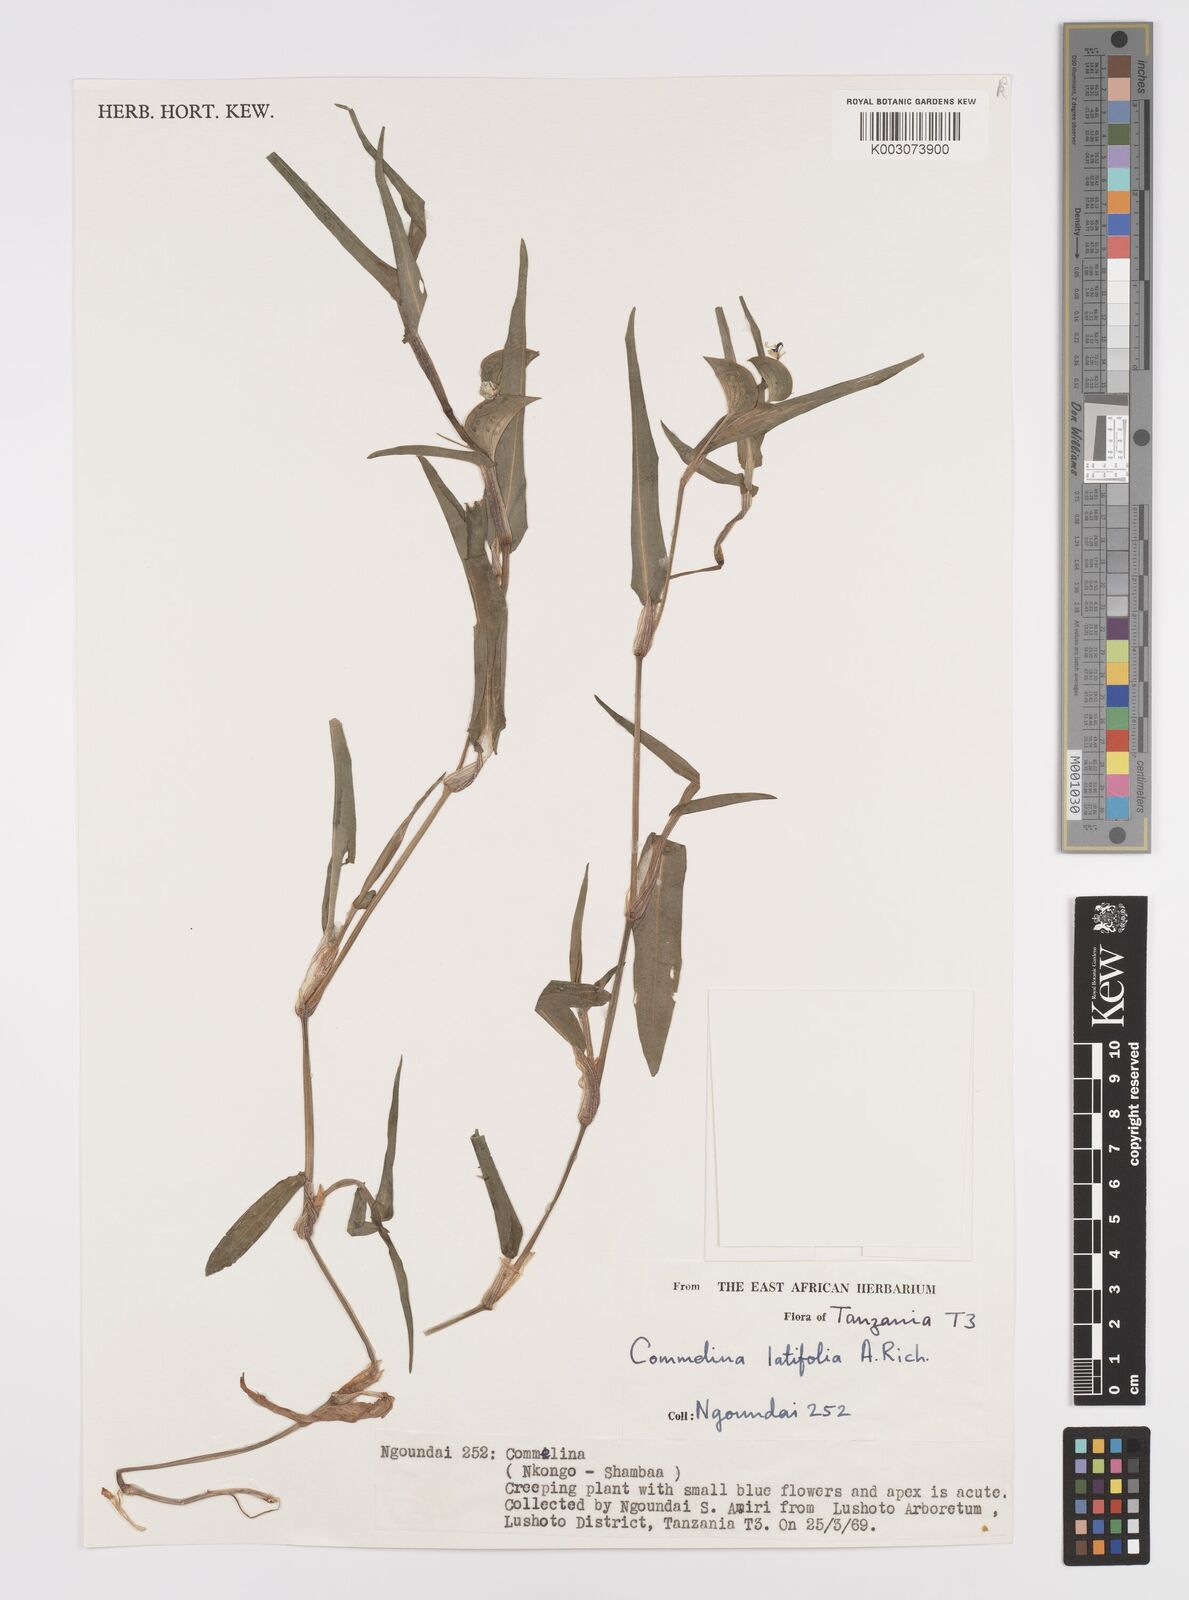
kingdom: Plantae
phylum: Tracheophyta
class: Liliopsida
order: Commelinales
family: Commelinaceae
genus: Commelina
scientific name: Commelina latifolia
